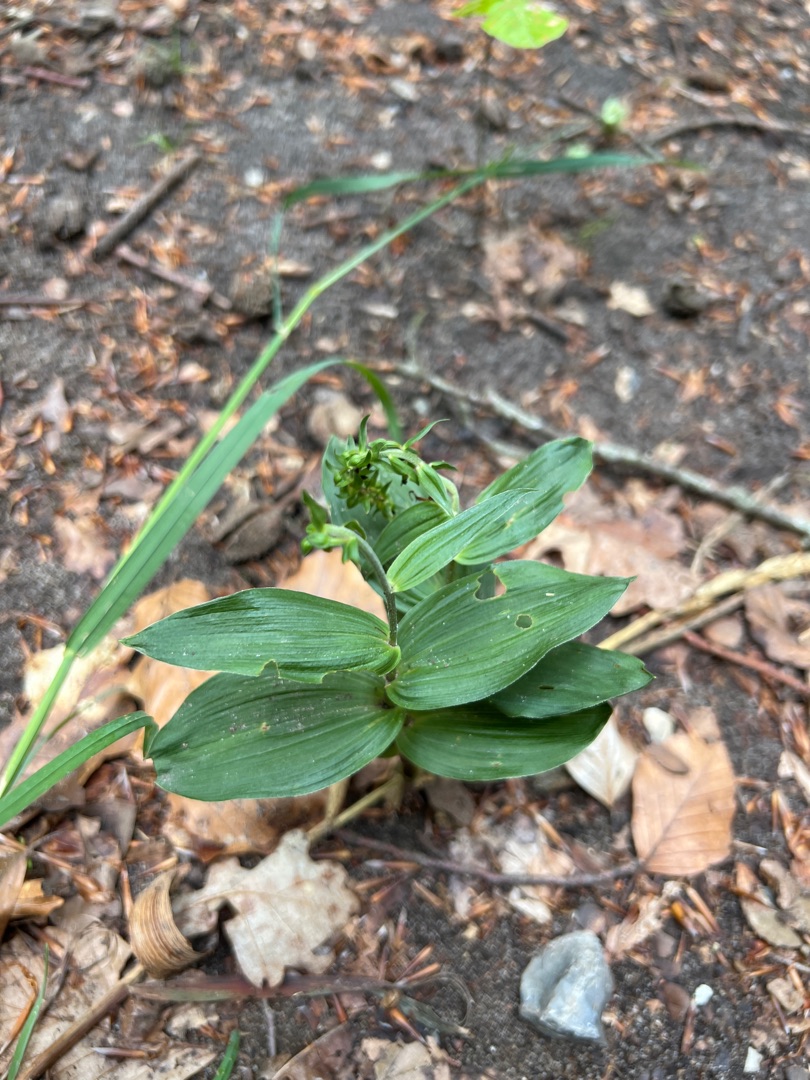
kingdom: Plantae
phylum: Tracheophyta
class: Liliopsida
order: Asparagales
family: Orchidaceae
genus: Epipactis
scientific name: Epipactis helleborine
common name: Skov-hullæbe
